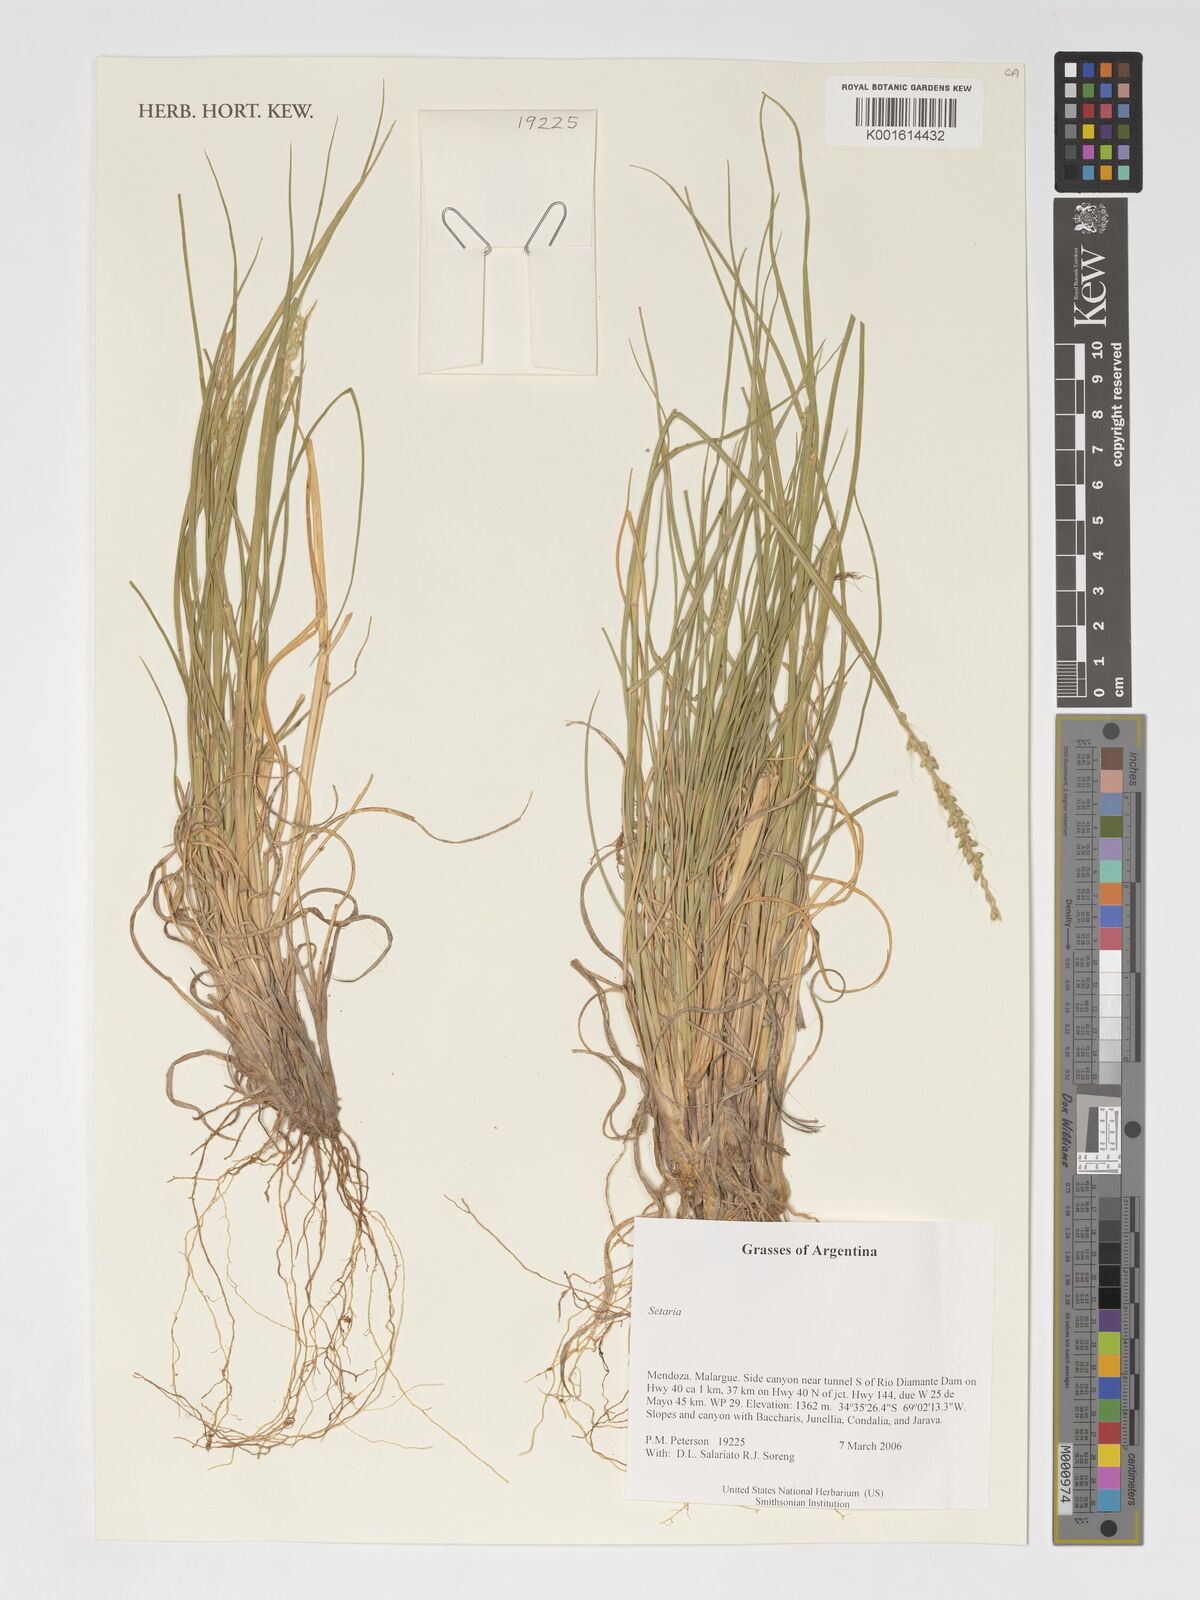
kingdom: Plantae
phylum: Tracheophyta
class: Liliopsida
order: Poales
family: Poaceae
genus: Setaria
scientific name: Setaria
